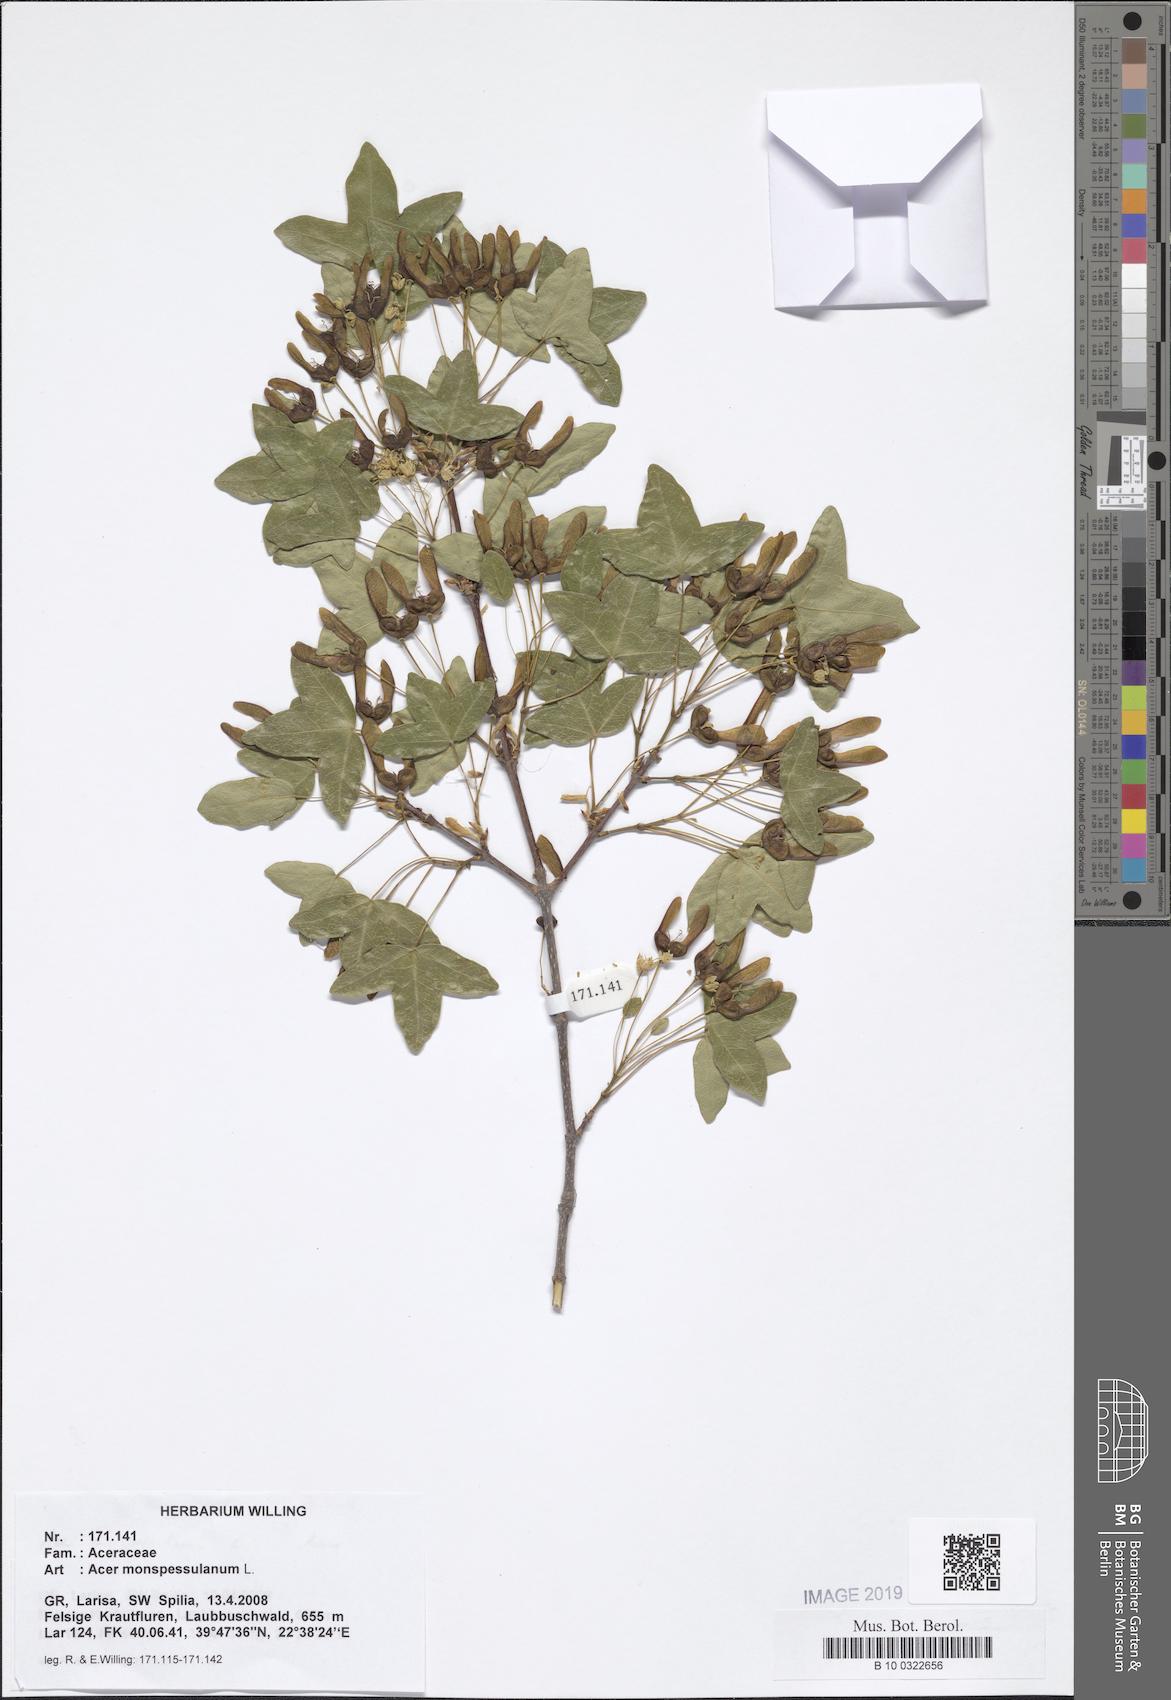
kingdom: Plantae
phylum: Tracheophyta
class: Magnoliopsida
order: Sapindales
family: Sapindaceae
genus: Acer
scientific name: Acer monspessulanum
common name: Montpellier maple
